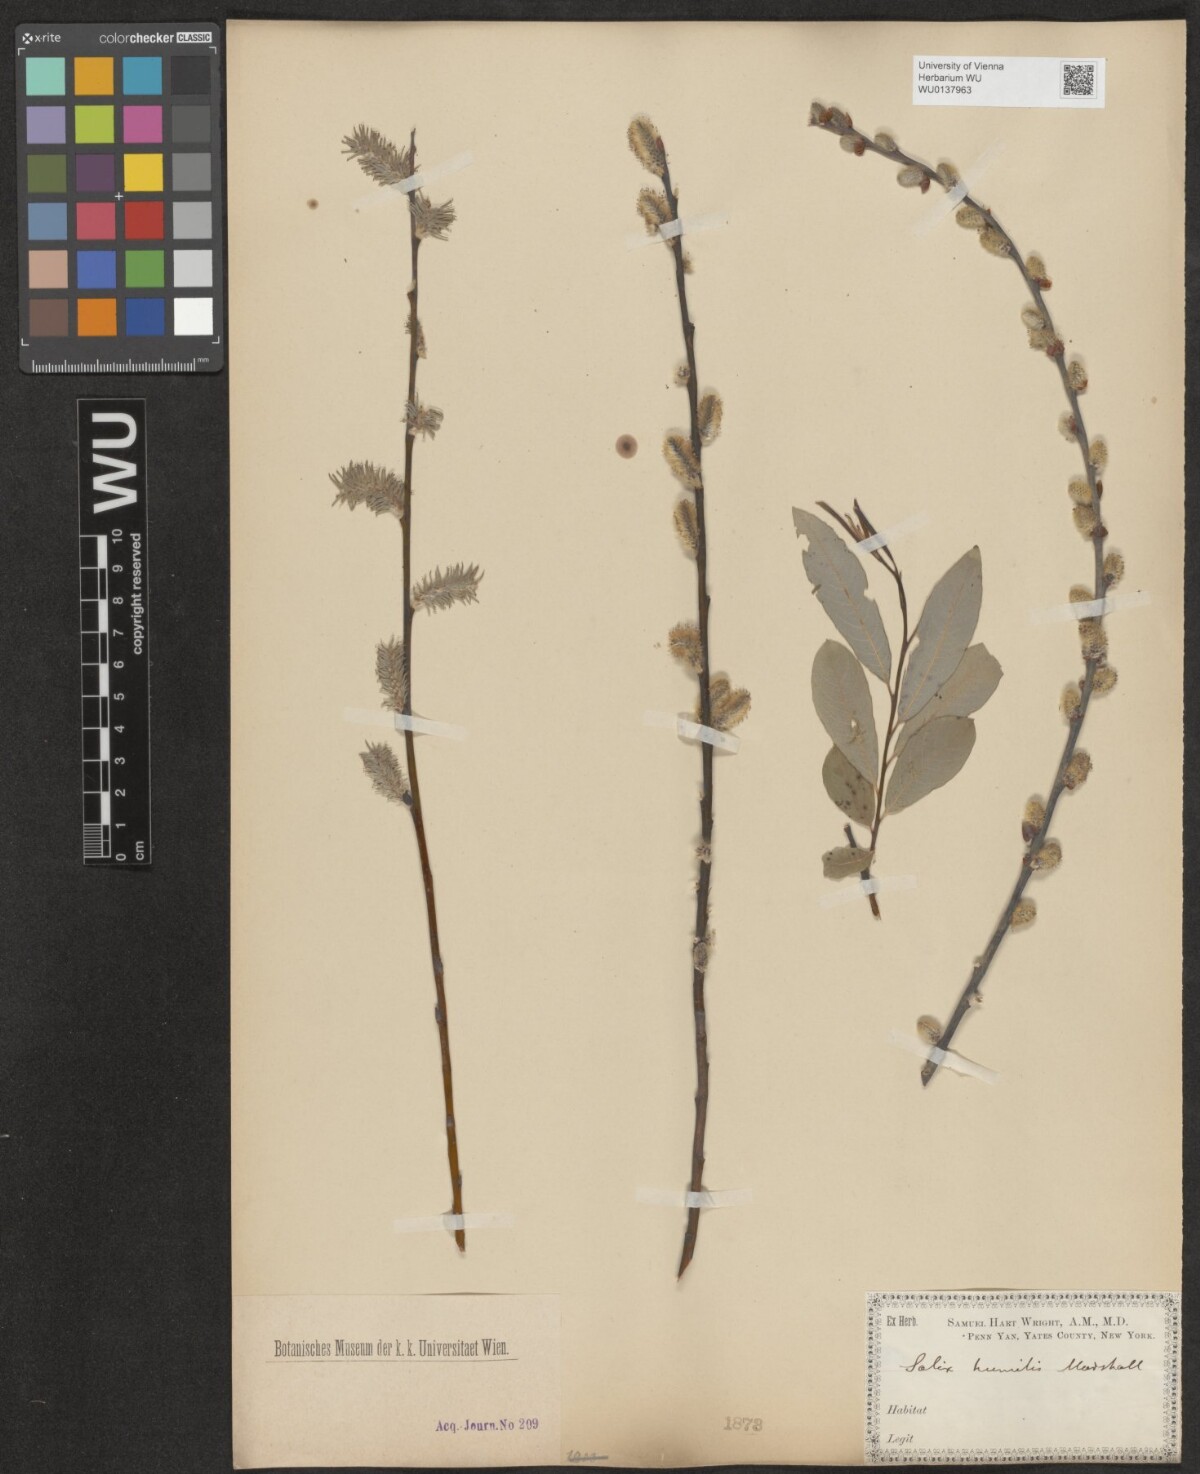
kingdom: Plantae
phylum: Tracheophyta
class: Magnoliopsida
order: Malpighiales
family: Salicaceae
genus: Salix
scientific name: Salix humilis
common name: Prairie willow
